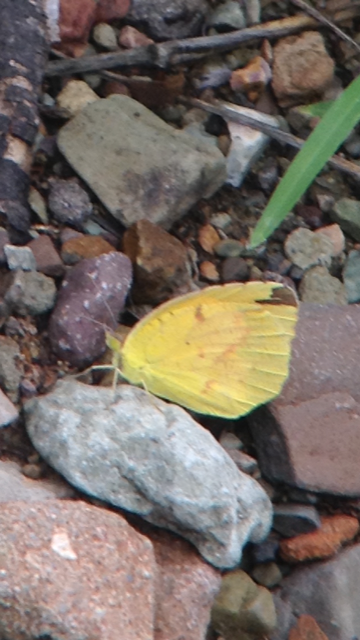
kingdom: Animalia
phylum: Arthropoda
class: Insecta
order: Lepidoptera
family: Pieridae
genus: Colias
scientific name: Colias eurytheme
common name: Orange Sulphur
